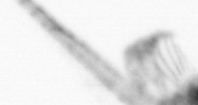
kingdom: Animalia
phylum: Arthropoda
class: Copepoda
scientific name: Copepoda
